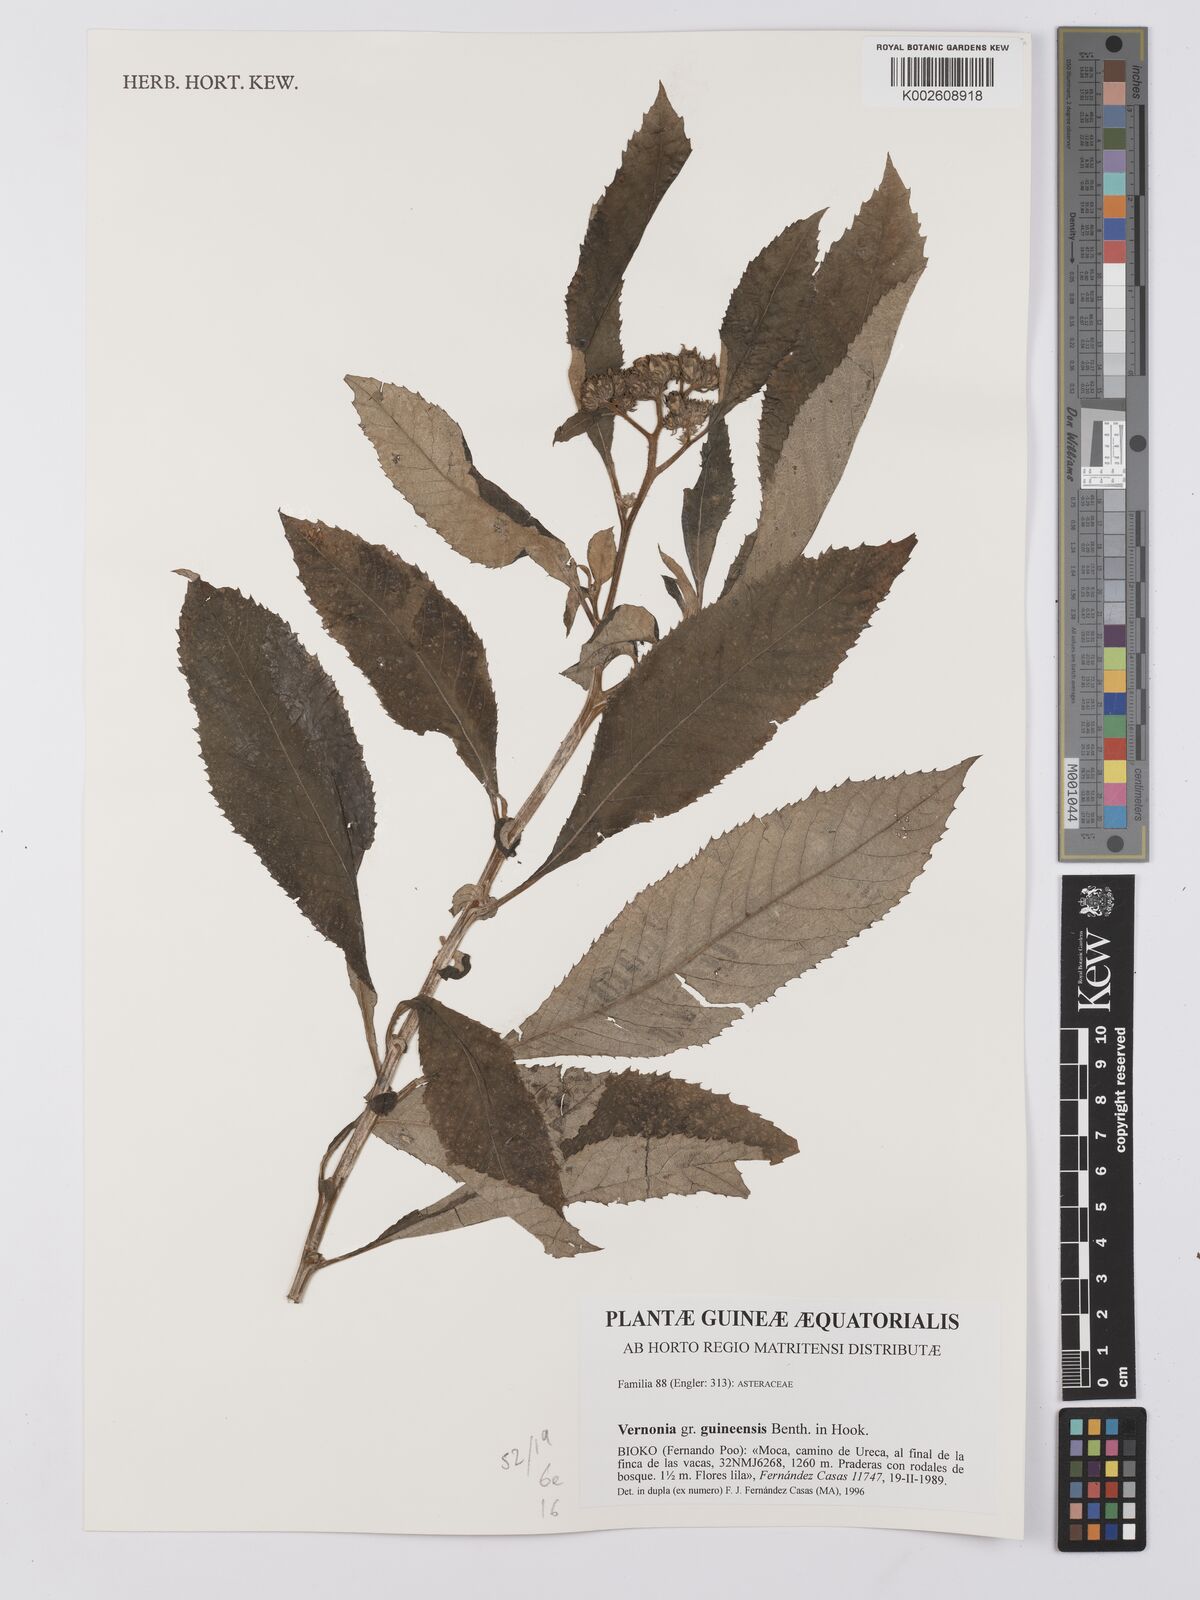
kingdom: Plantae
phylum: Tracheophyta
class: Magnoliopsida
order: Asterales
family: Asteraceae
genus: Baccharoides
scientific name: Baccharoides guineensis
